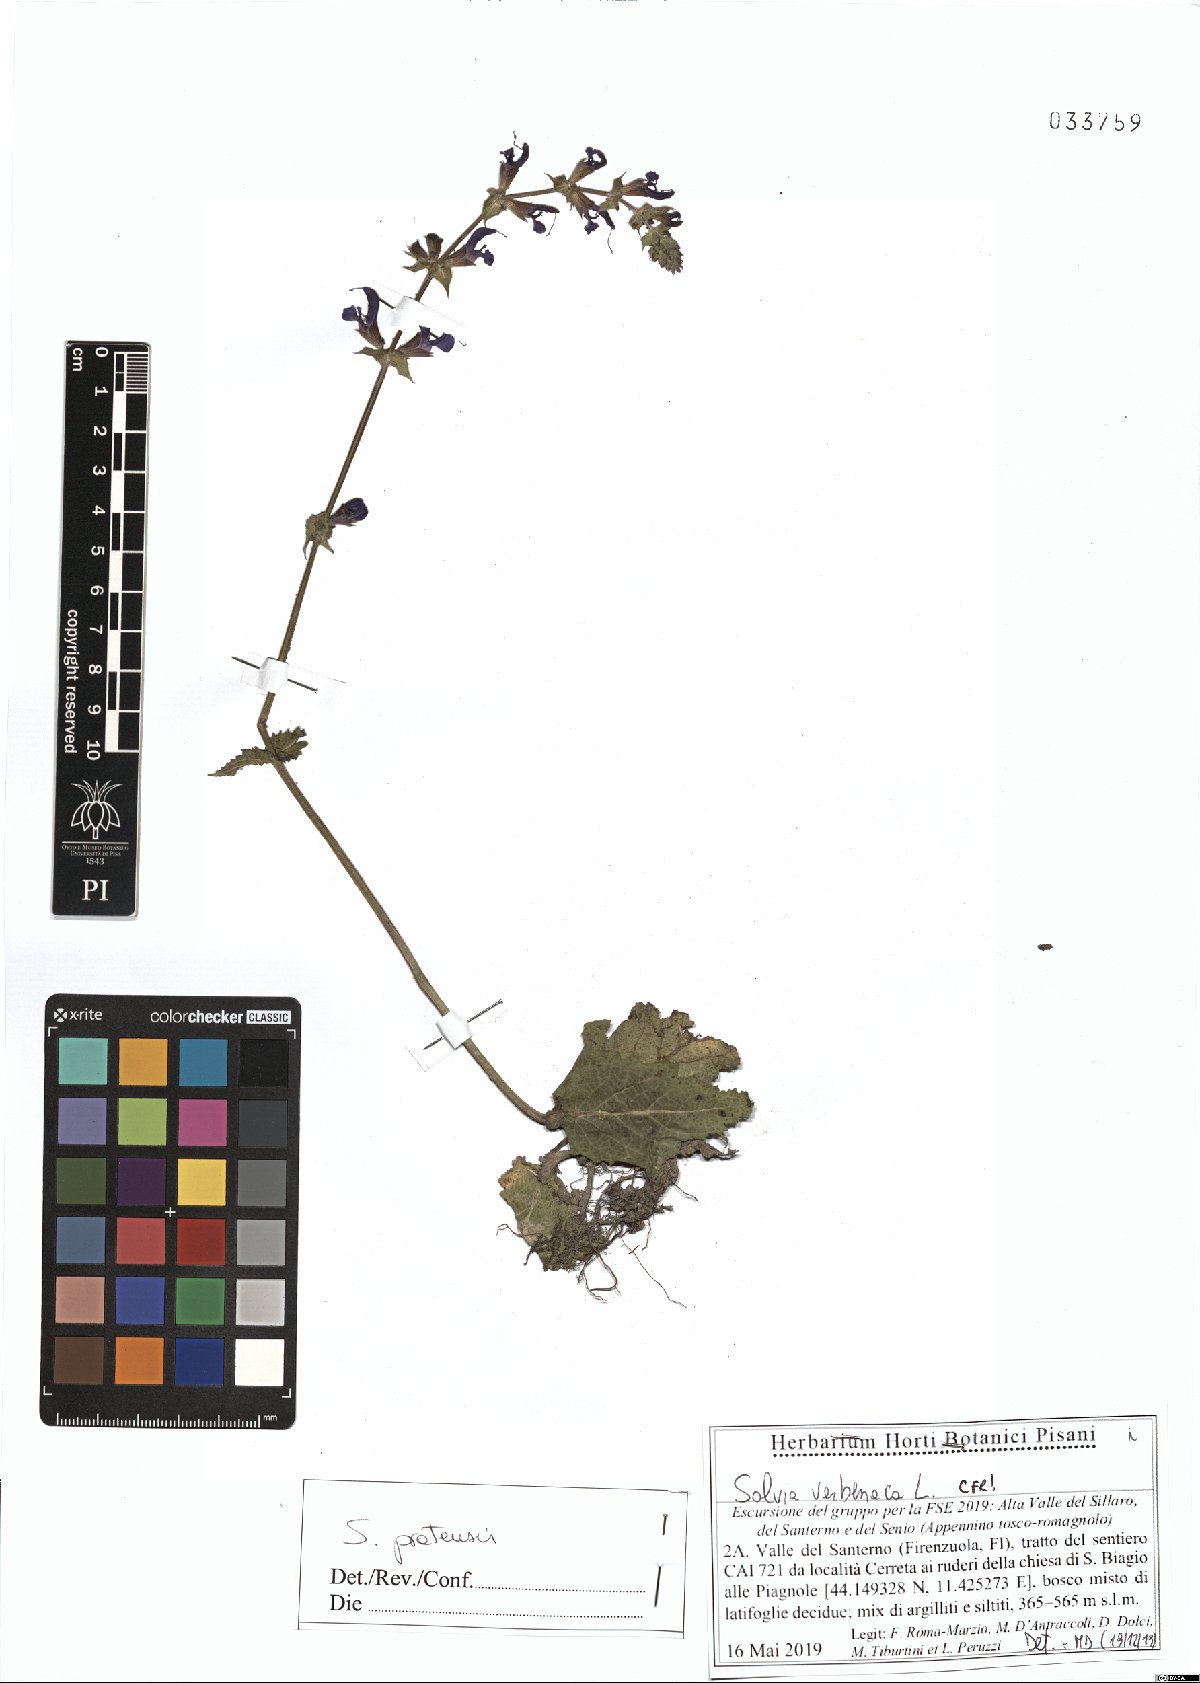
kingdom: Plantae
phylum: Tracheophyta
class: Magnoliopsida
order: Lamiales
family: Lamiaceae
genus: Salvia
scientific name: Salvia pratensis
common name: Meadow sage
